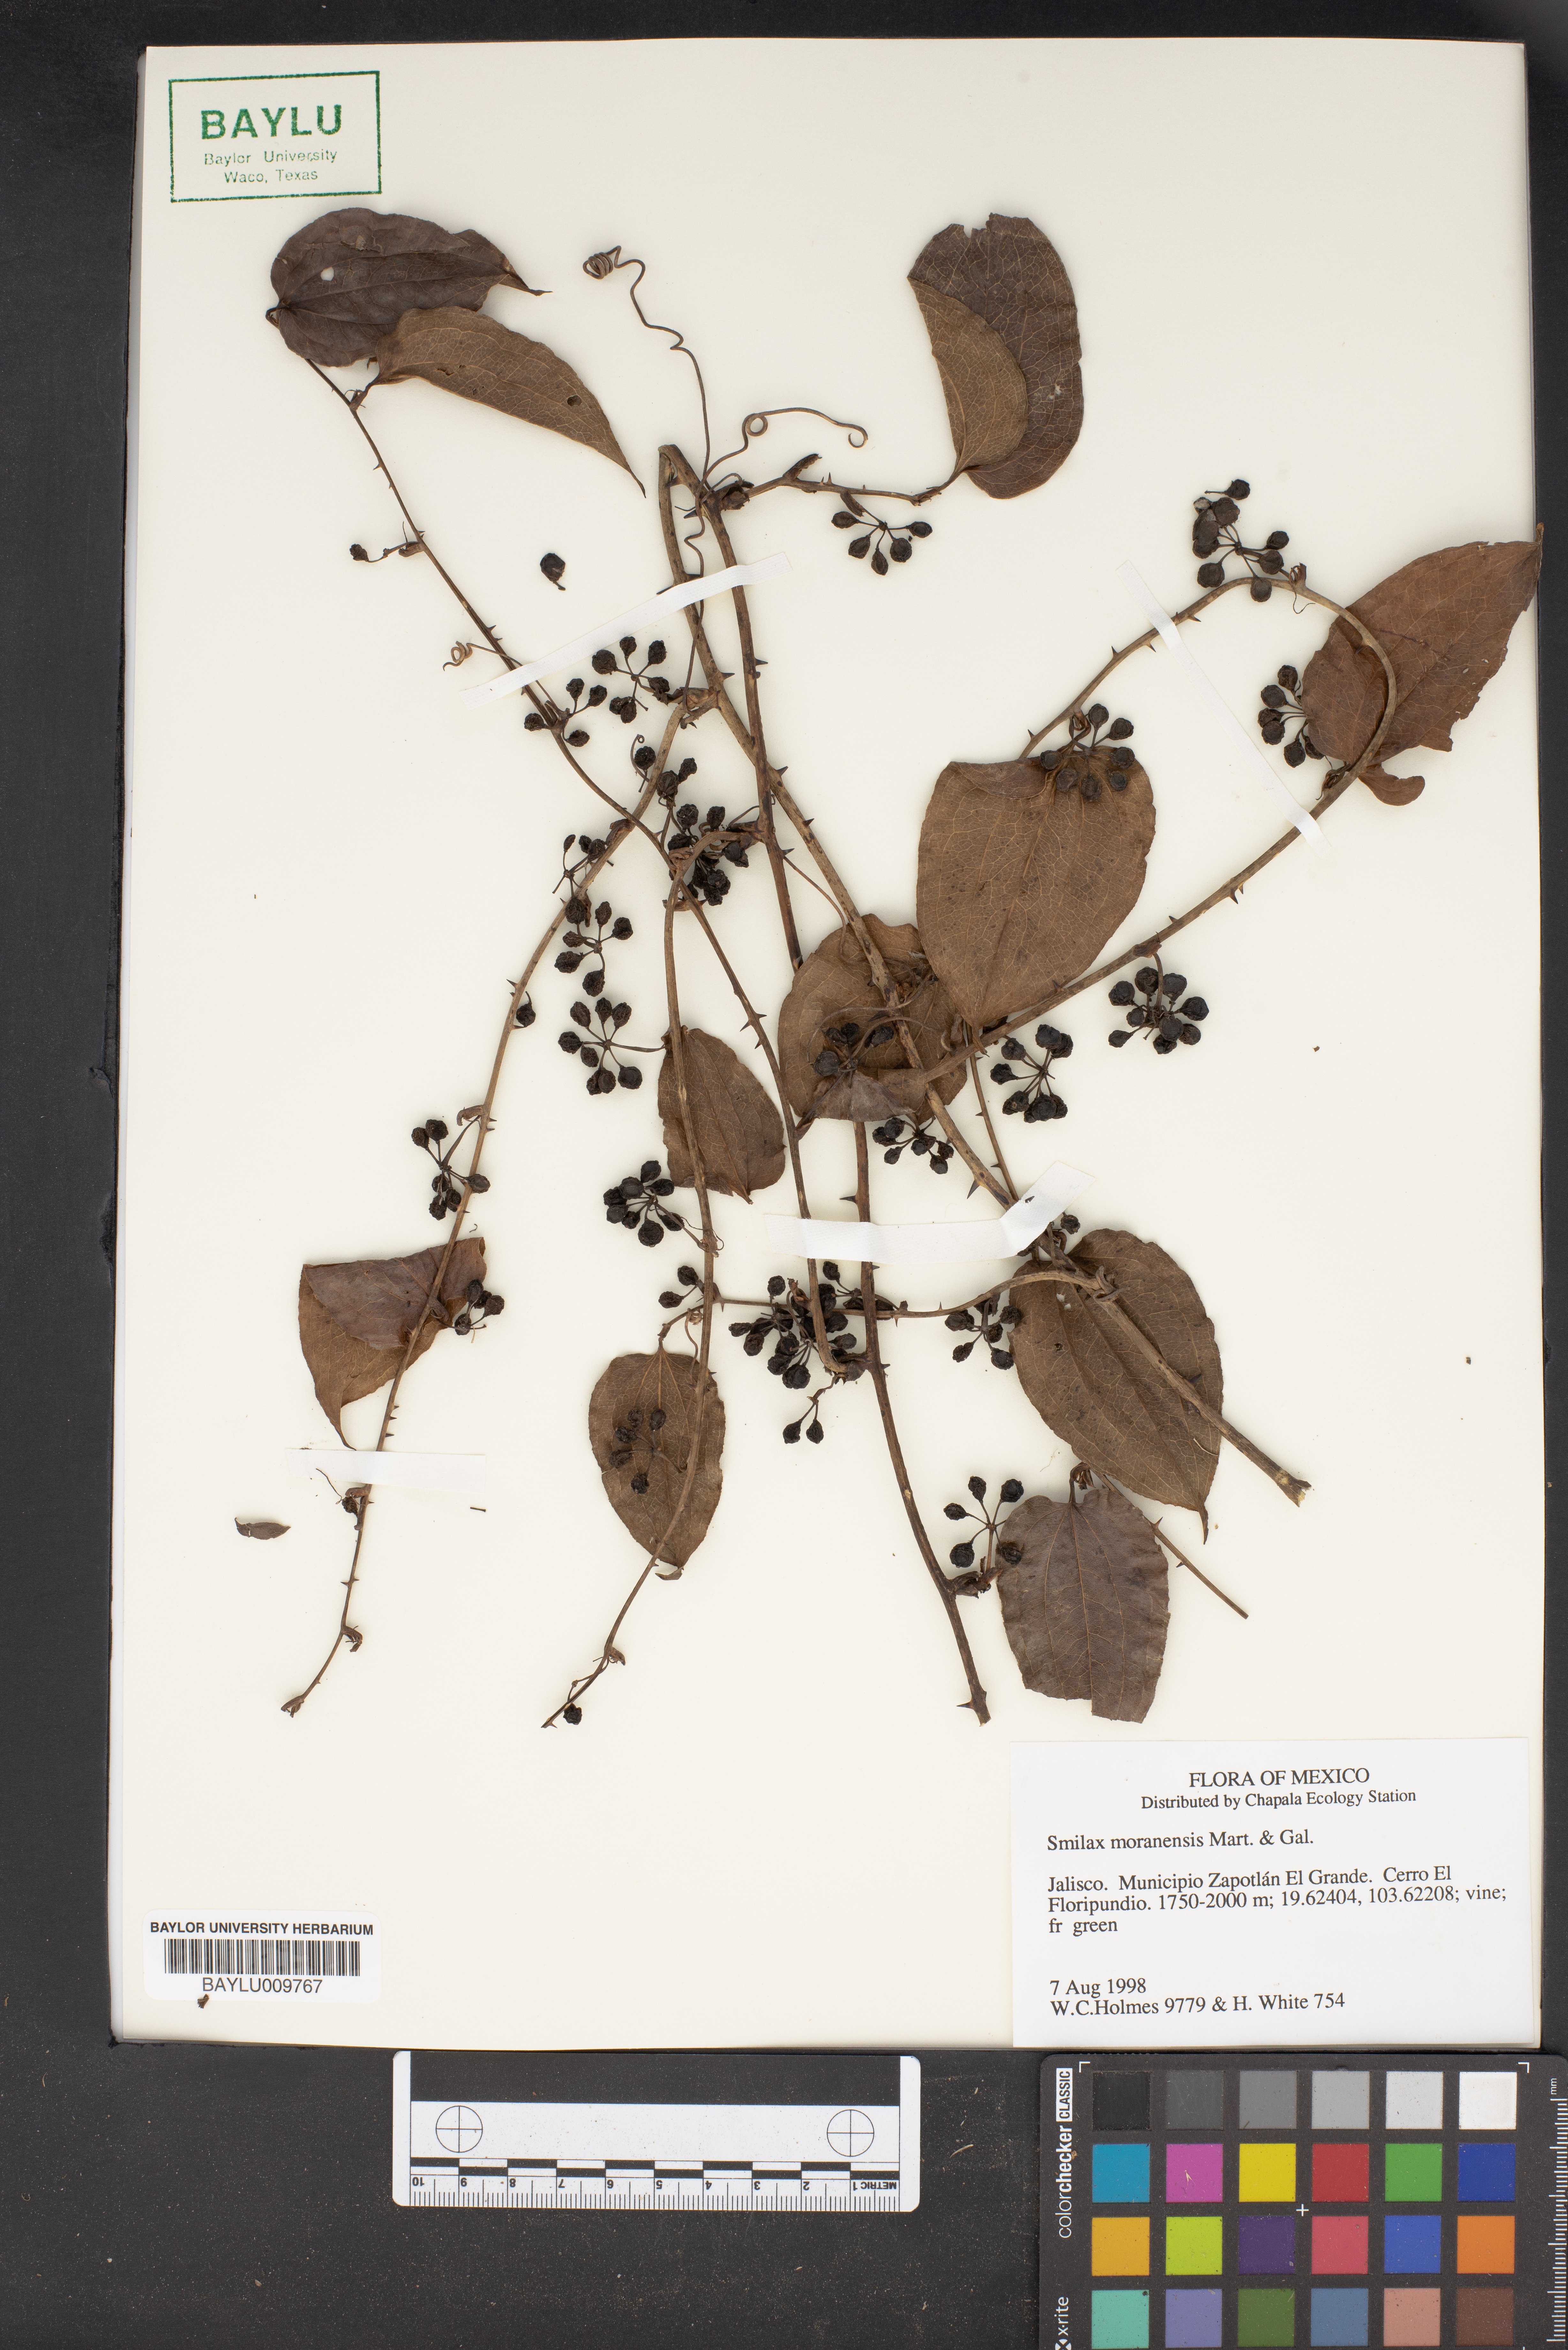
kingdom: Plantae
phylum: Tracheophyta
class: Liliopsida
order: Liliales
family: Smilacaceae
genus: Smilax
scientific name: Smilax moranensis
